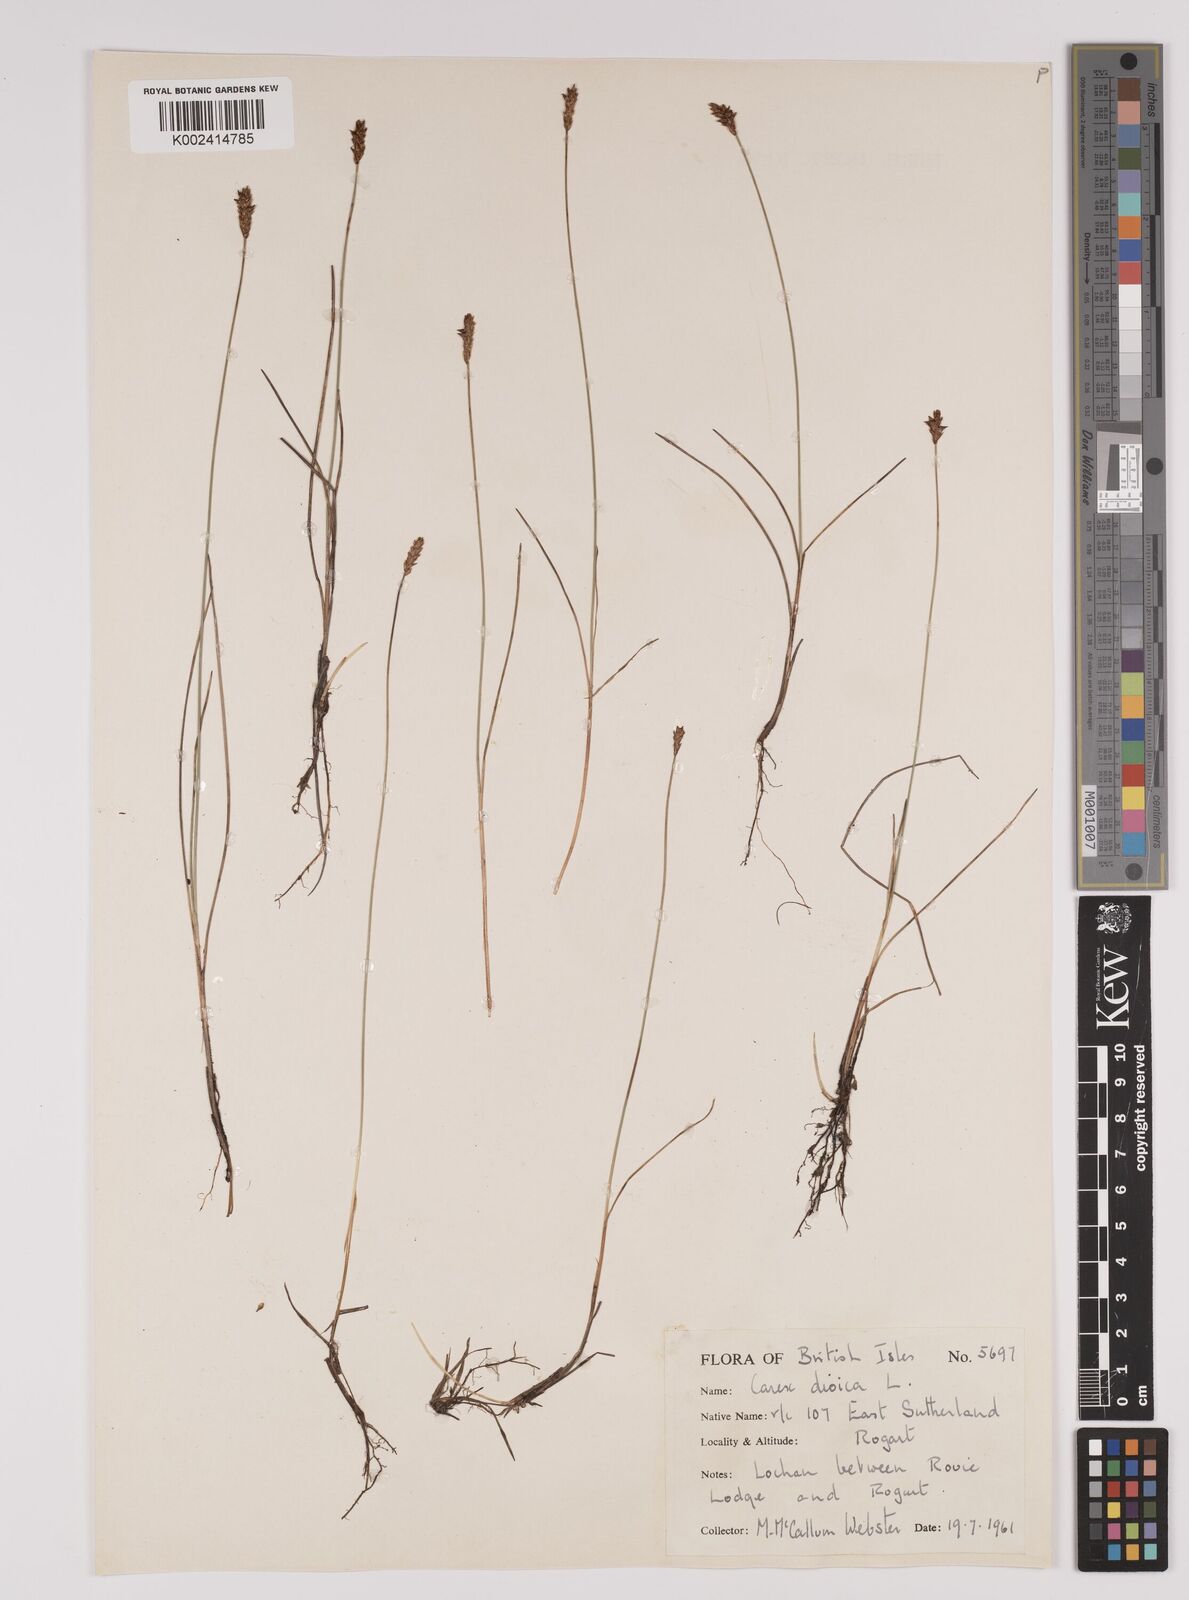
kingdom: Plantae
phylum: Tracheophyta
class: Liliopsida
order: Poales
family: Cyperaceae
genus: Carex
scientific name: Carex dioica
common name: Dioecious sedge
